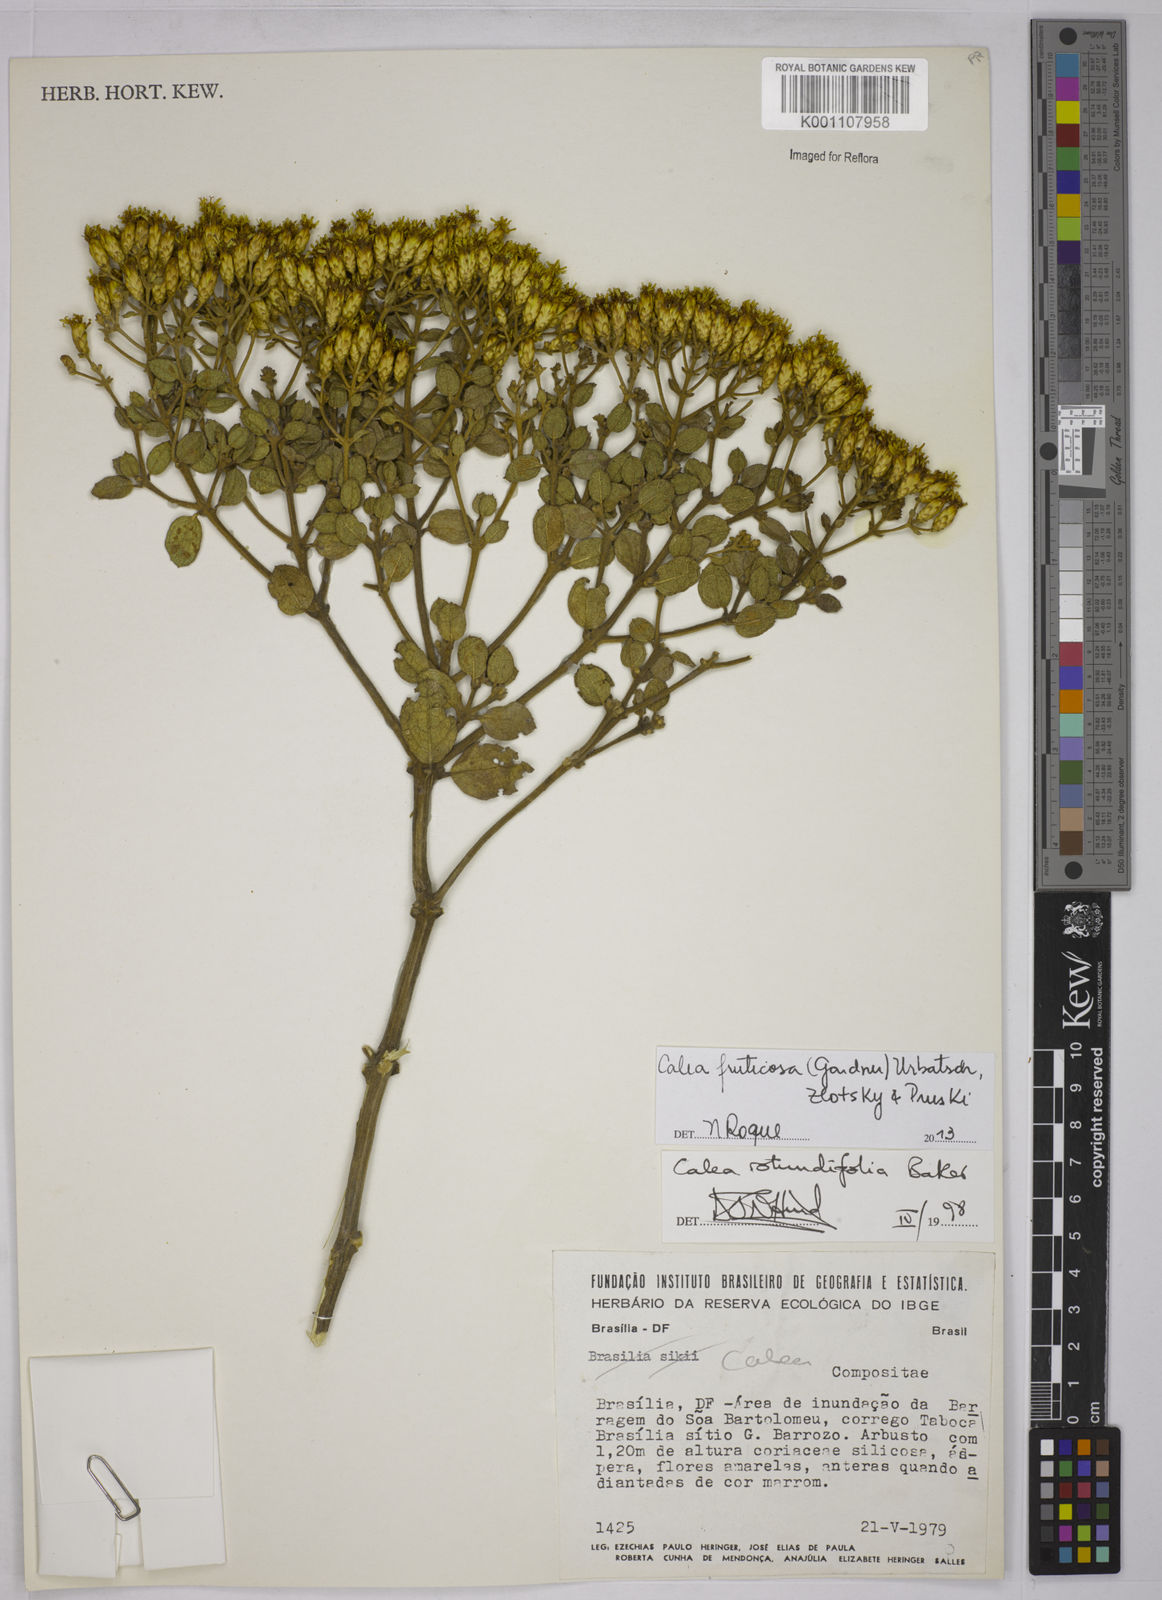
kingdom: Plantae
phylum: Tracheophyta
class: Magnoliopsida
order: Asterales
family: Asteraceae
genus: Calea
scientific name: Calea fruticosa
